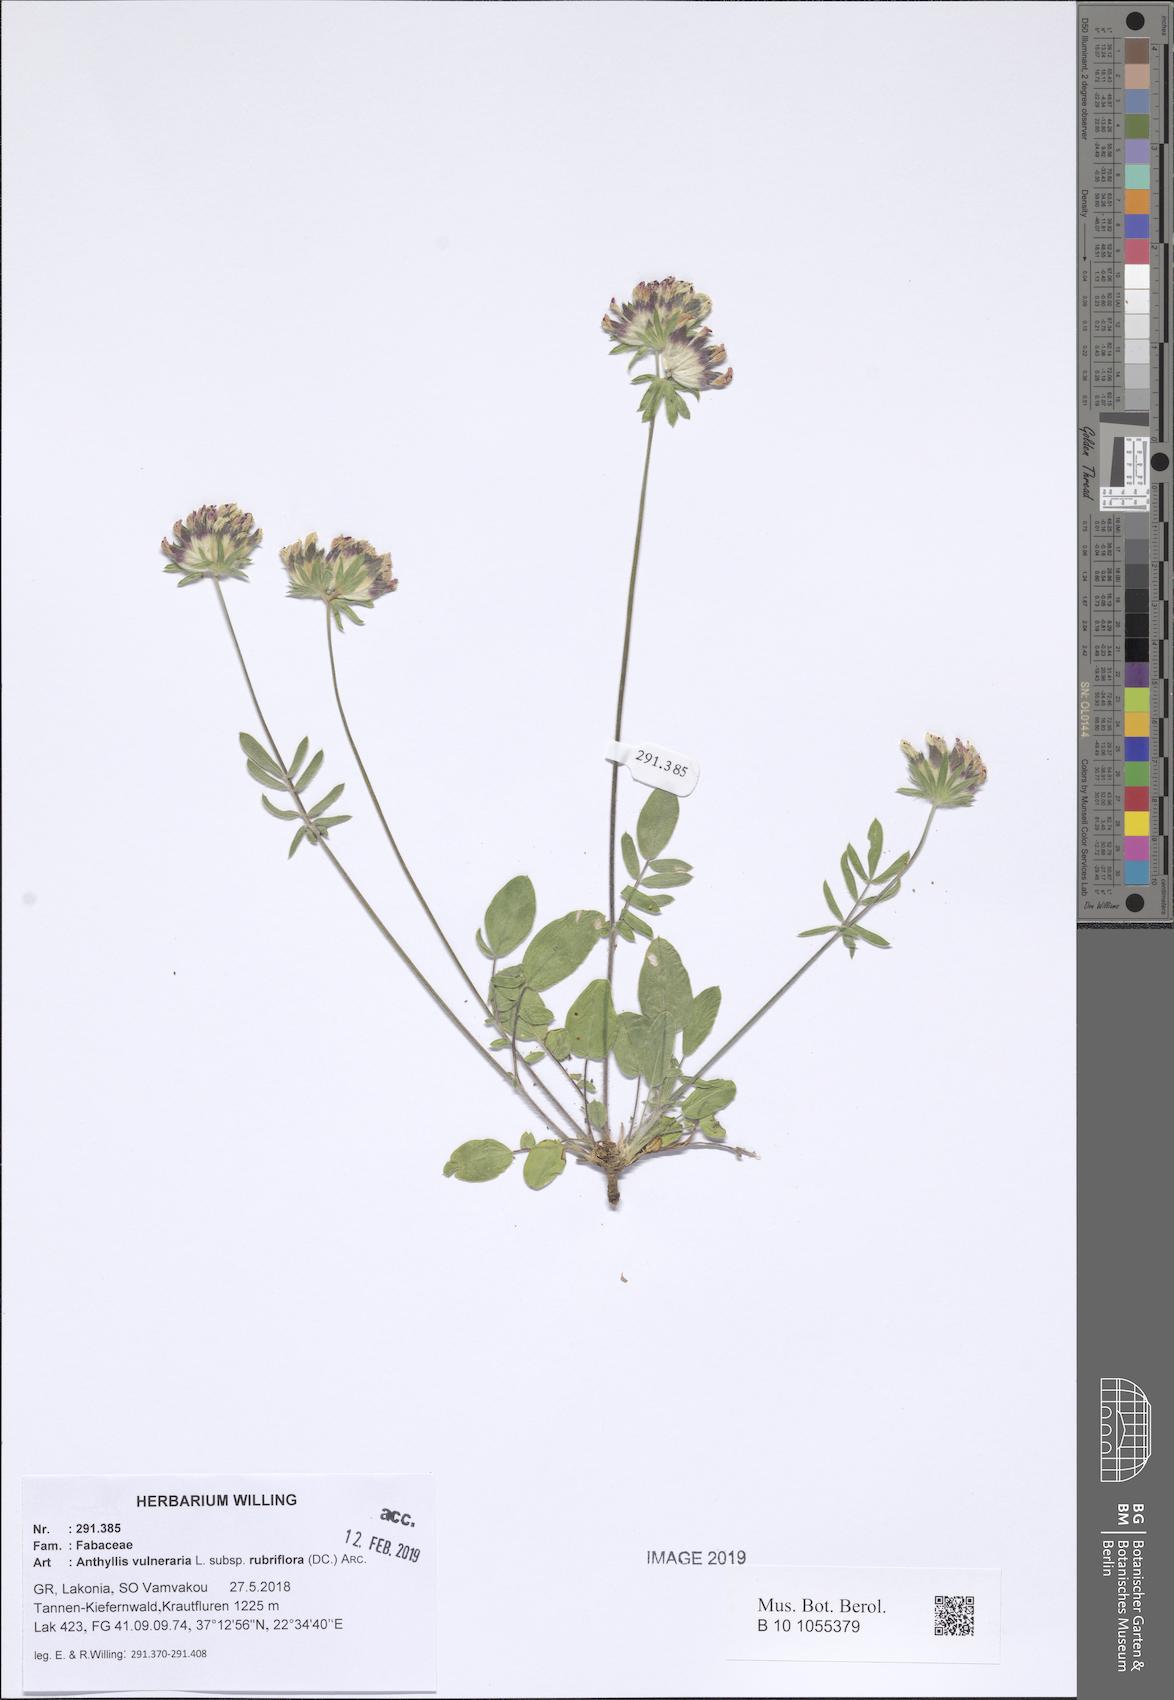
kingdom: Plantae
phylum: Tracheophyta
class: Magnoliopsida
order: Fabales
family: Fabaceae
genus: Anthyllis
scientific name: Anthyllis vulneraria
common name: Kidney vetch
